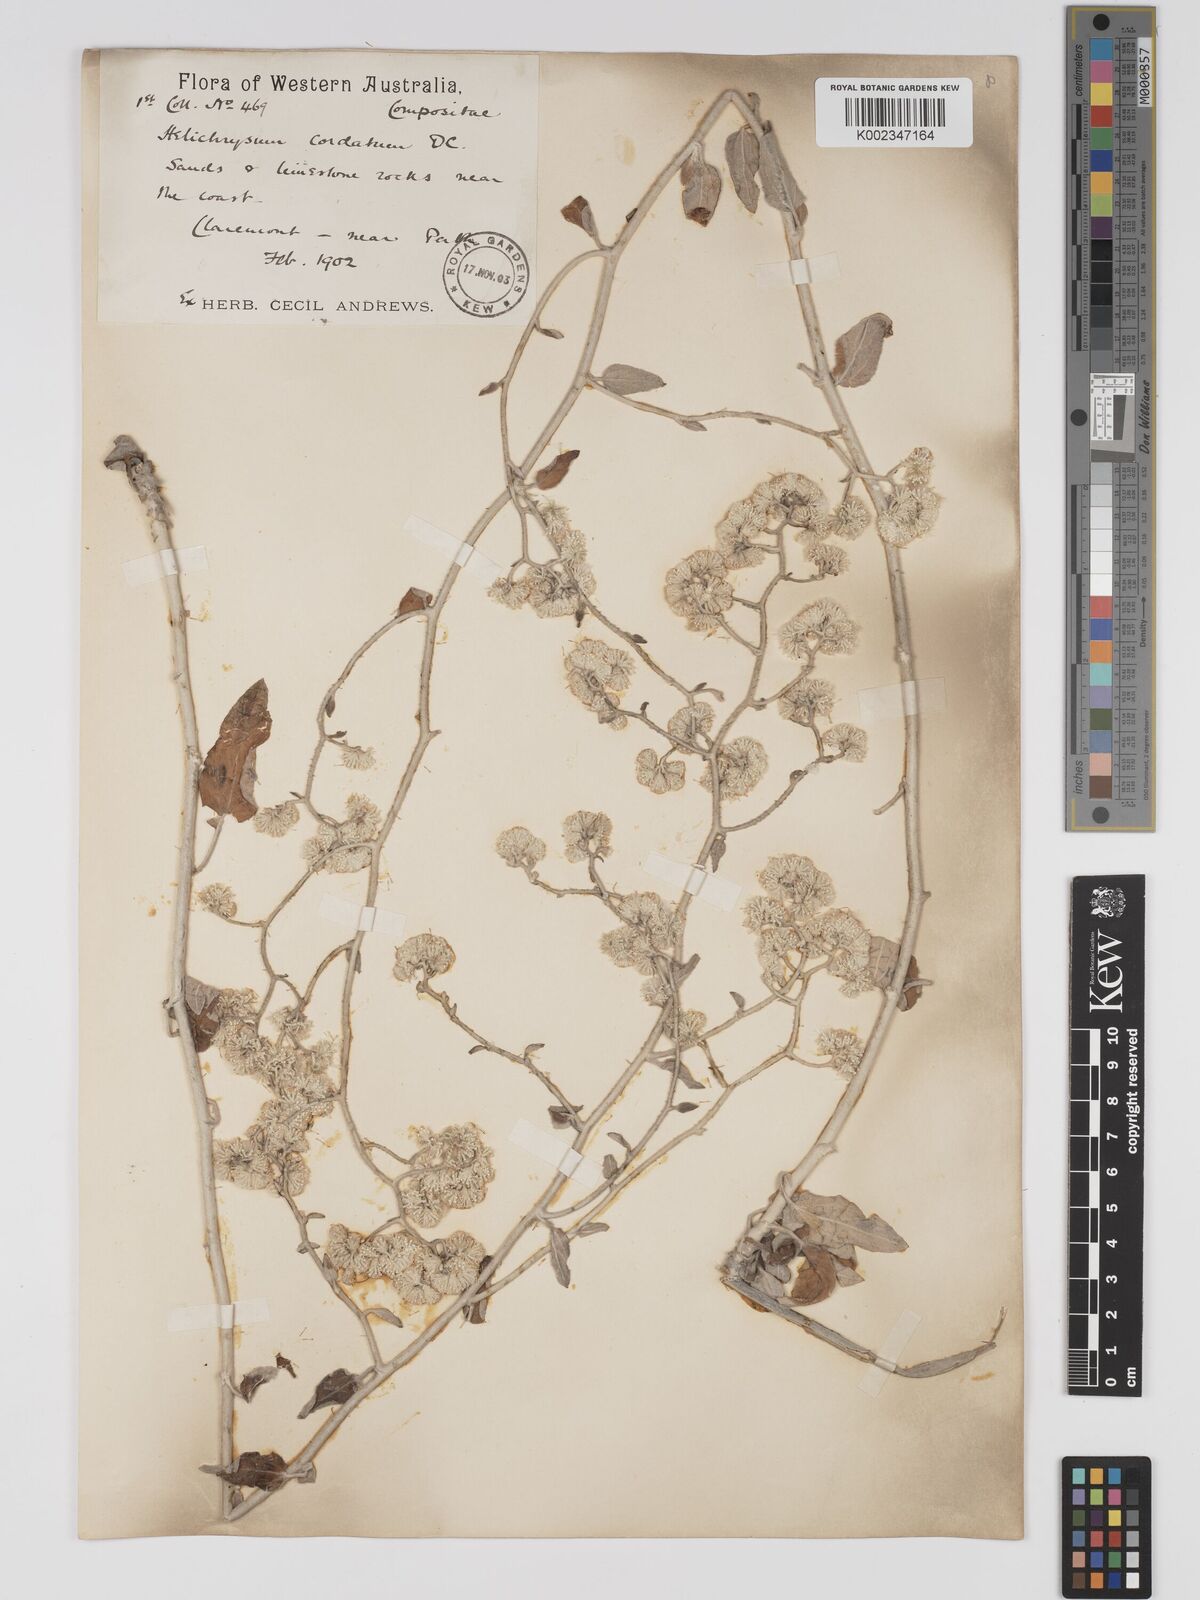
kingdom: Plantae
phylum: Tracheophyta
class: Magnoliopsida
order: Asterales
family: Asteraceae
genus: Ozothamnus
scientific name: Ozothamnus
